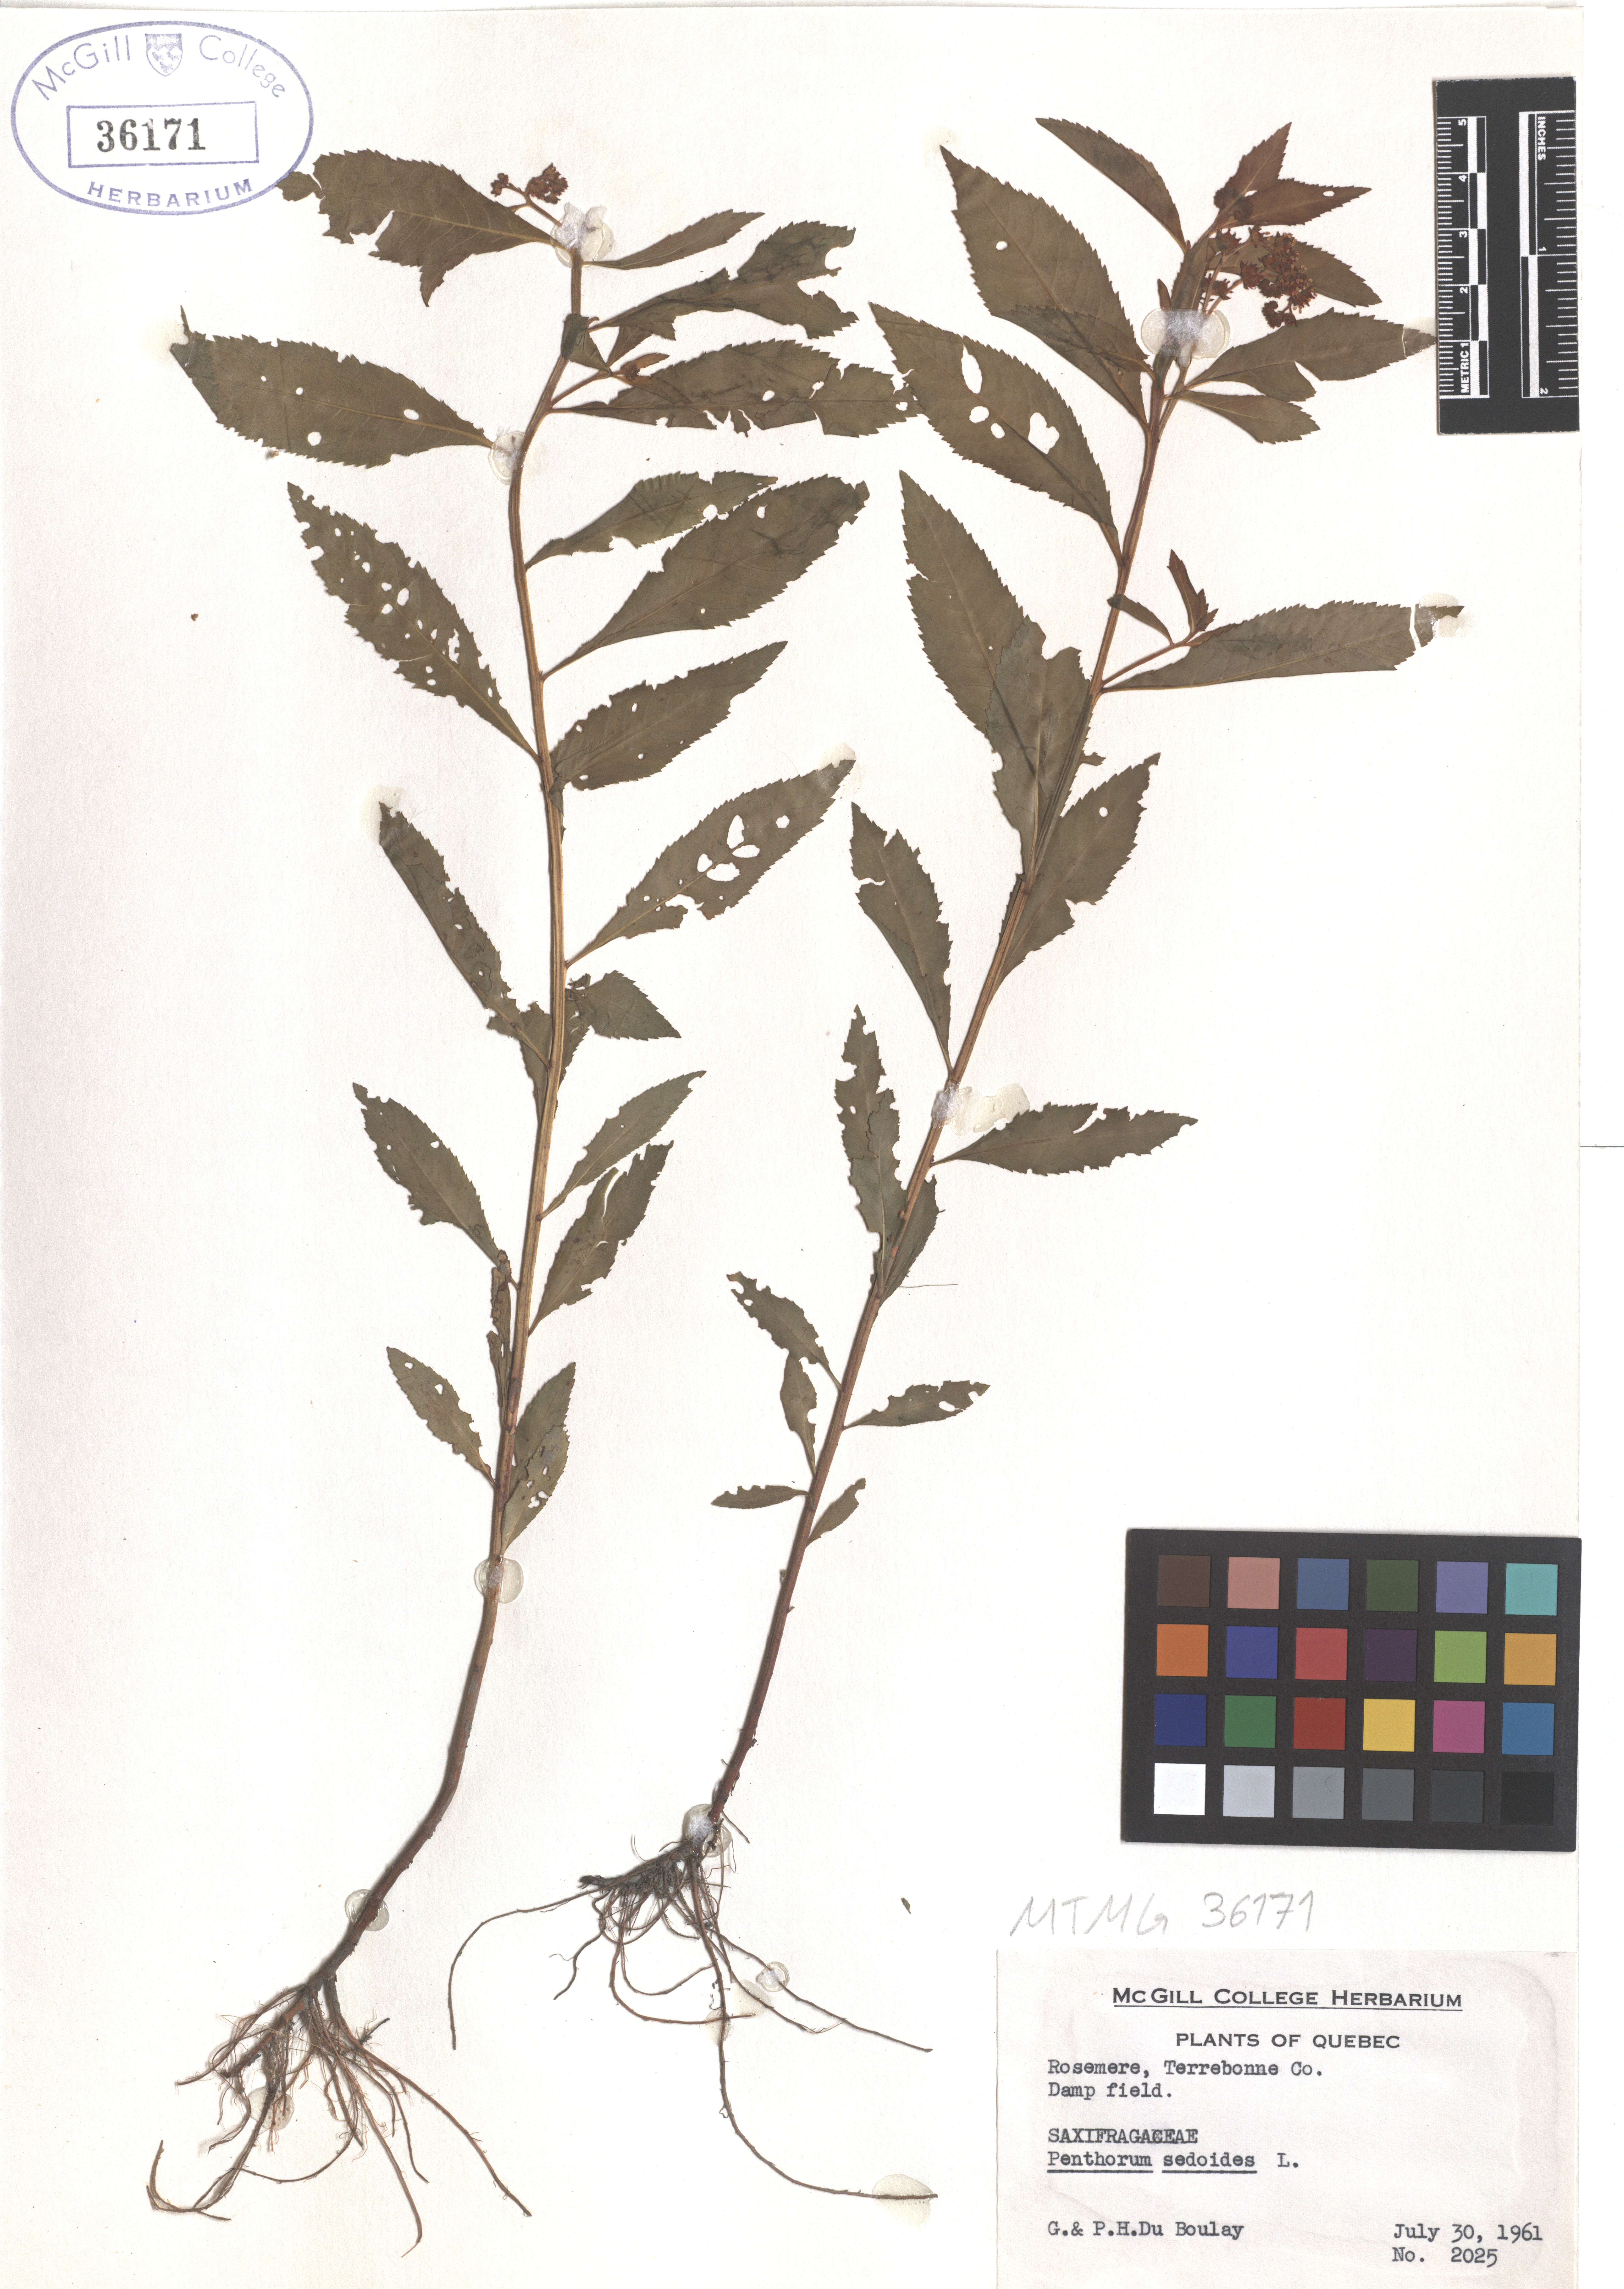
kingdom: Plantae
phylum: Tracheophyta
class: Magnoliopsida
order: Saxifragales
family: Penthoraceae
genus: Penthorum
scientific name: Penthorum sedoides
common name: Ditch stonecrop
